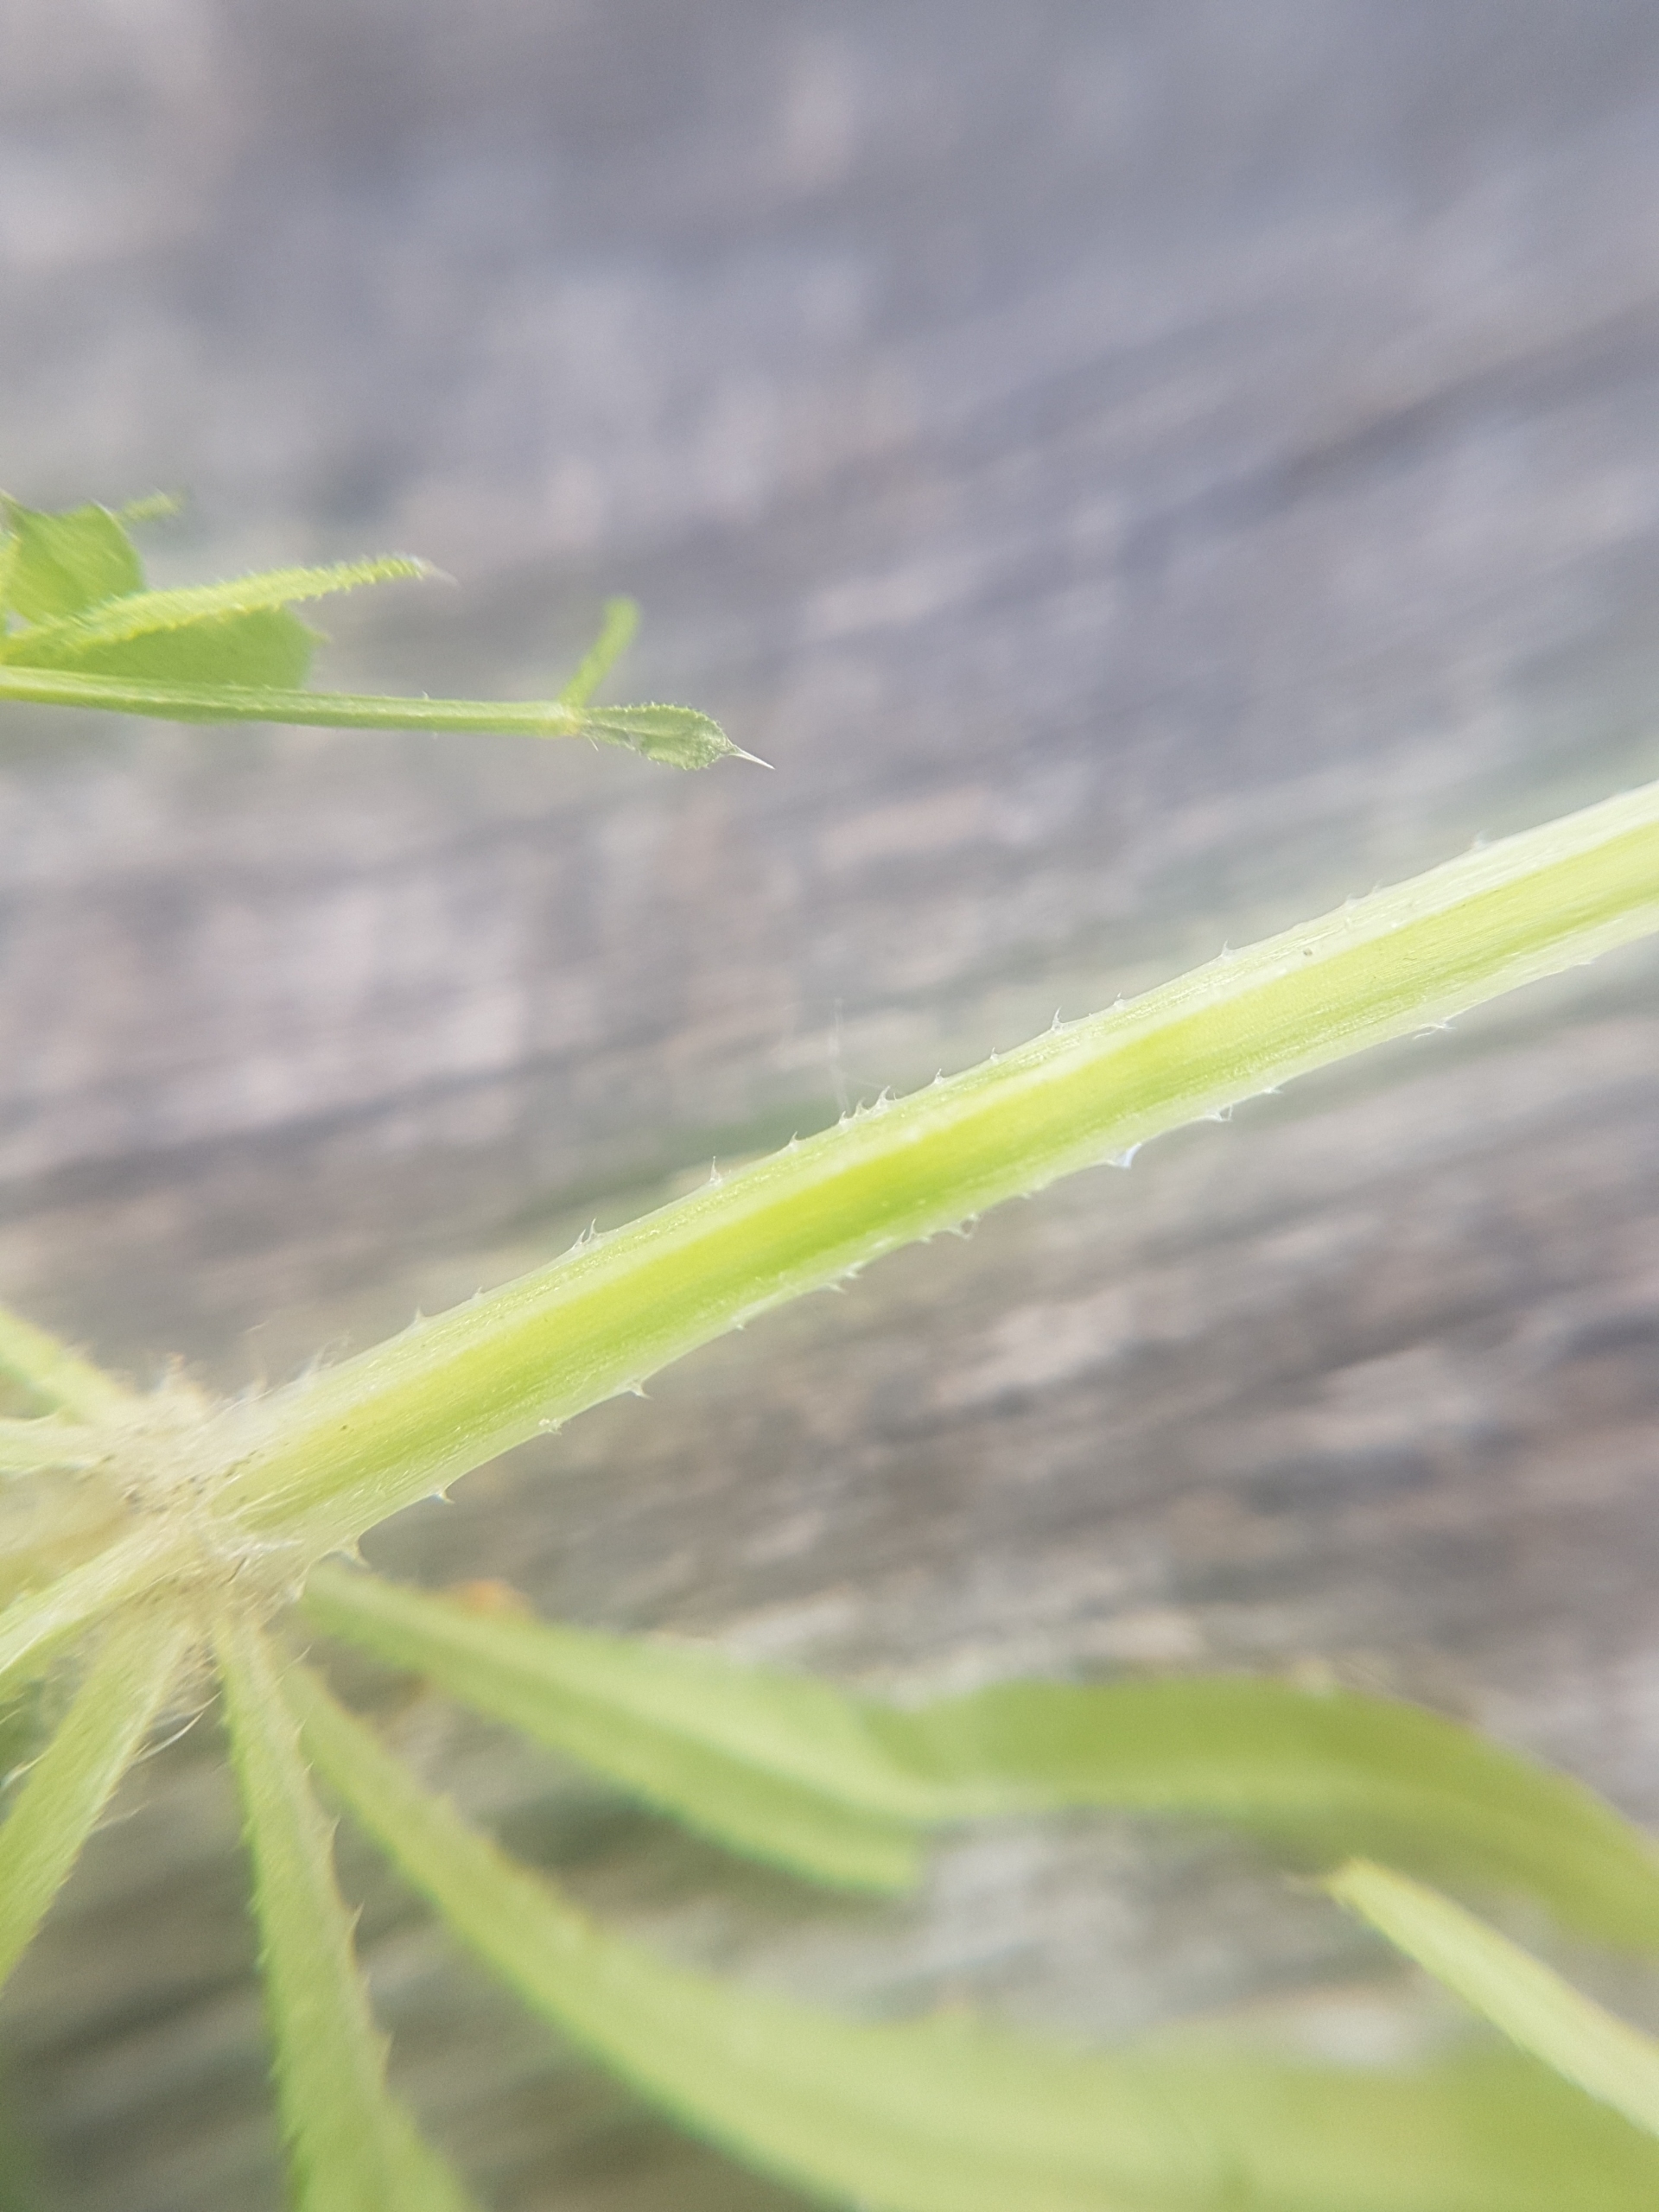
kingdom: Plantae
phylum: Tracheophyta
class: Magnoliopsida
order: Gentianales
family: Rubiaceae
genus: Galium
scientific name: Galium aparine
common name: Burre-snerre
